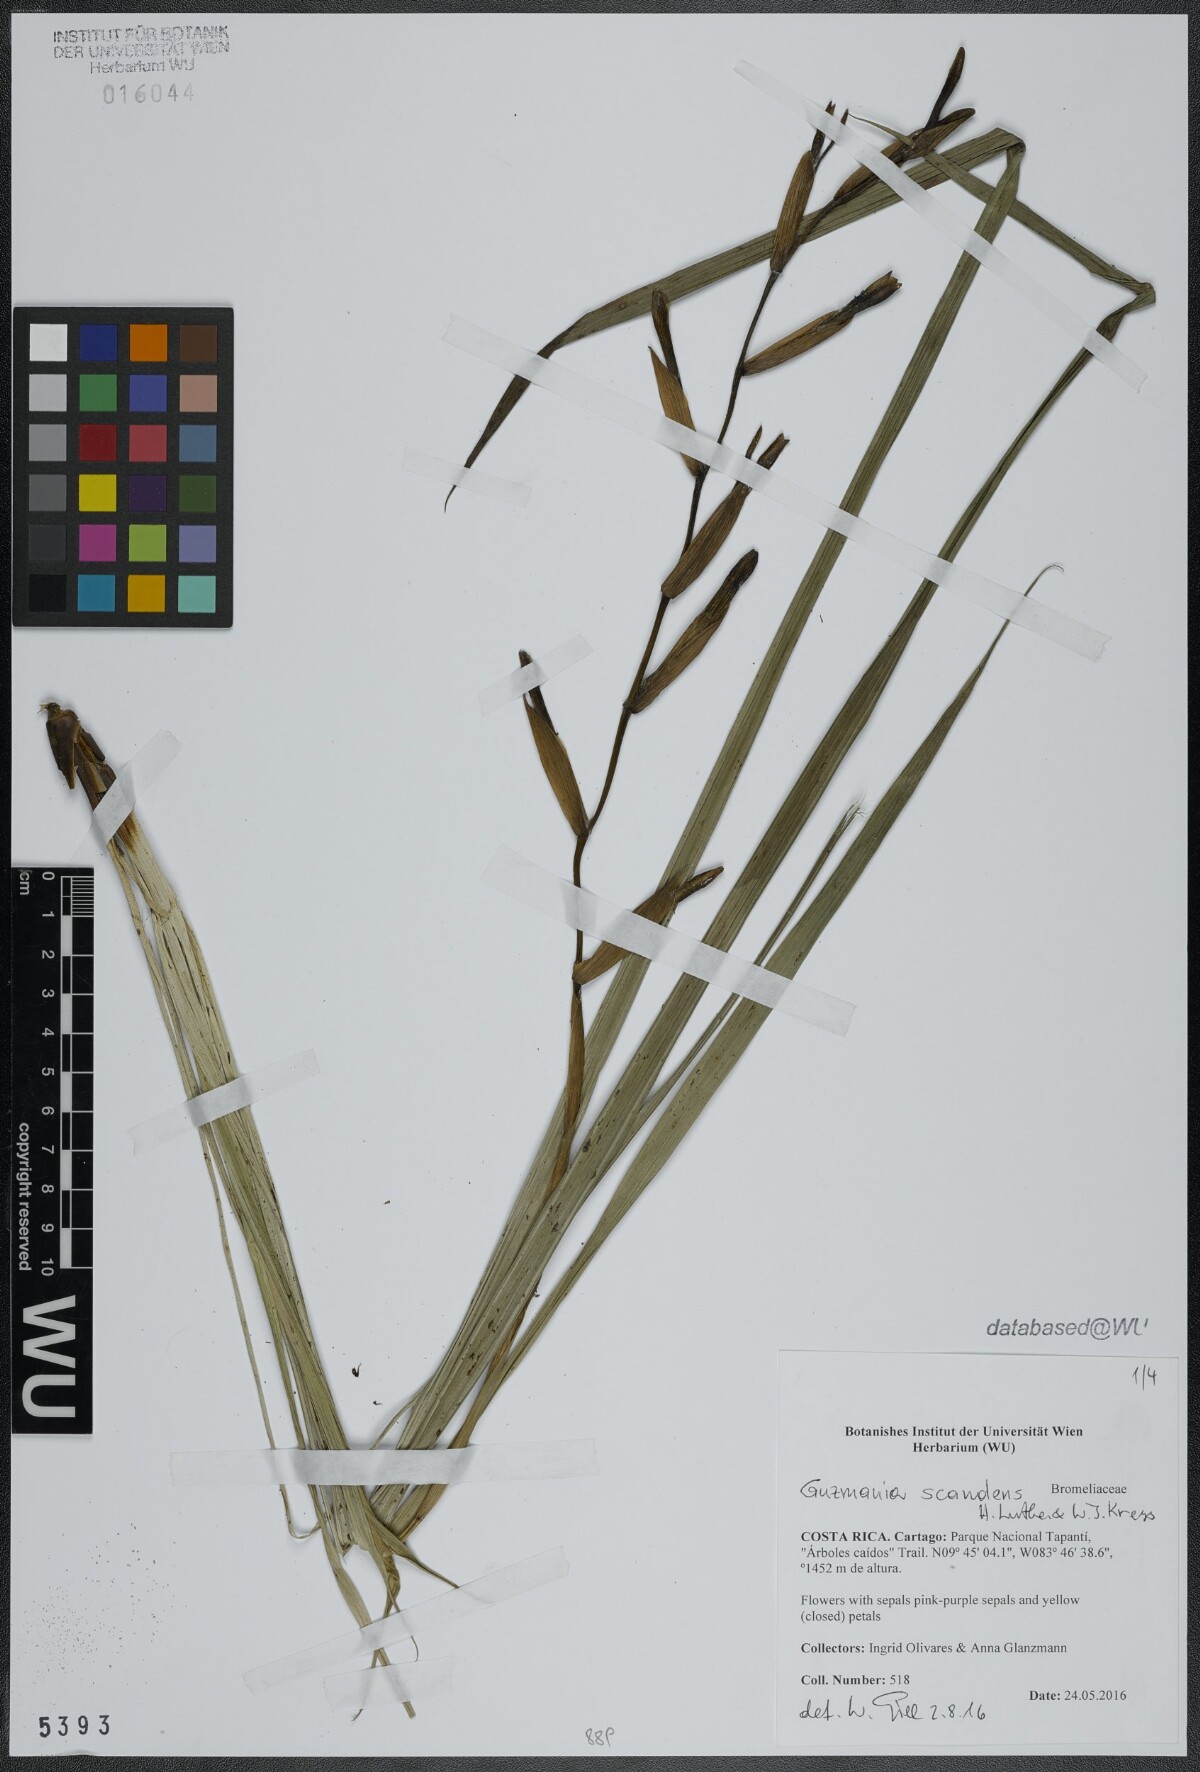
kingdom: Plantae
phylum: Tracheophyta
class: Liliopsida
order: Poales
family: Bromeliaceae
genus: Guzmania
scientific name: Guzmania scandens
